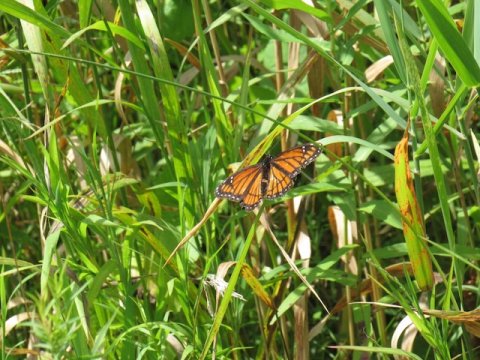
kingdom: Animalia
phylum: Arthropoda
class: Insecta
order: Lepidoptera
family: Nymphalidae
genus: Limenitis
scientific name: Limenitis archippus
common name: Viceroy
